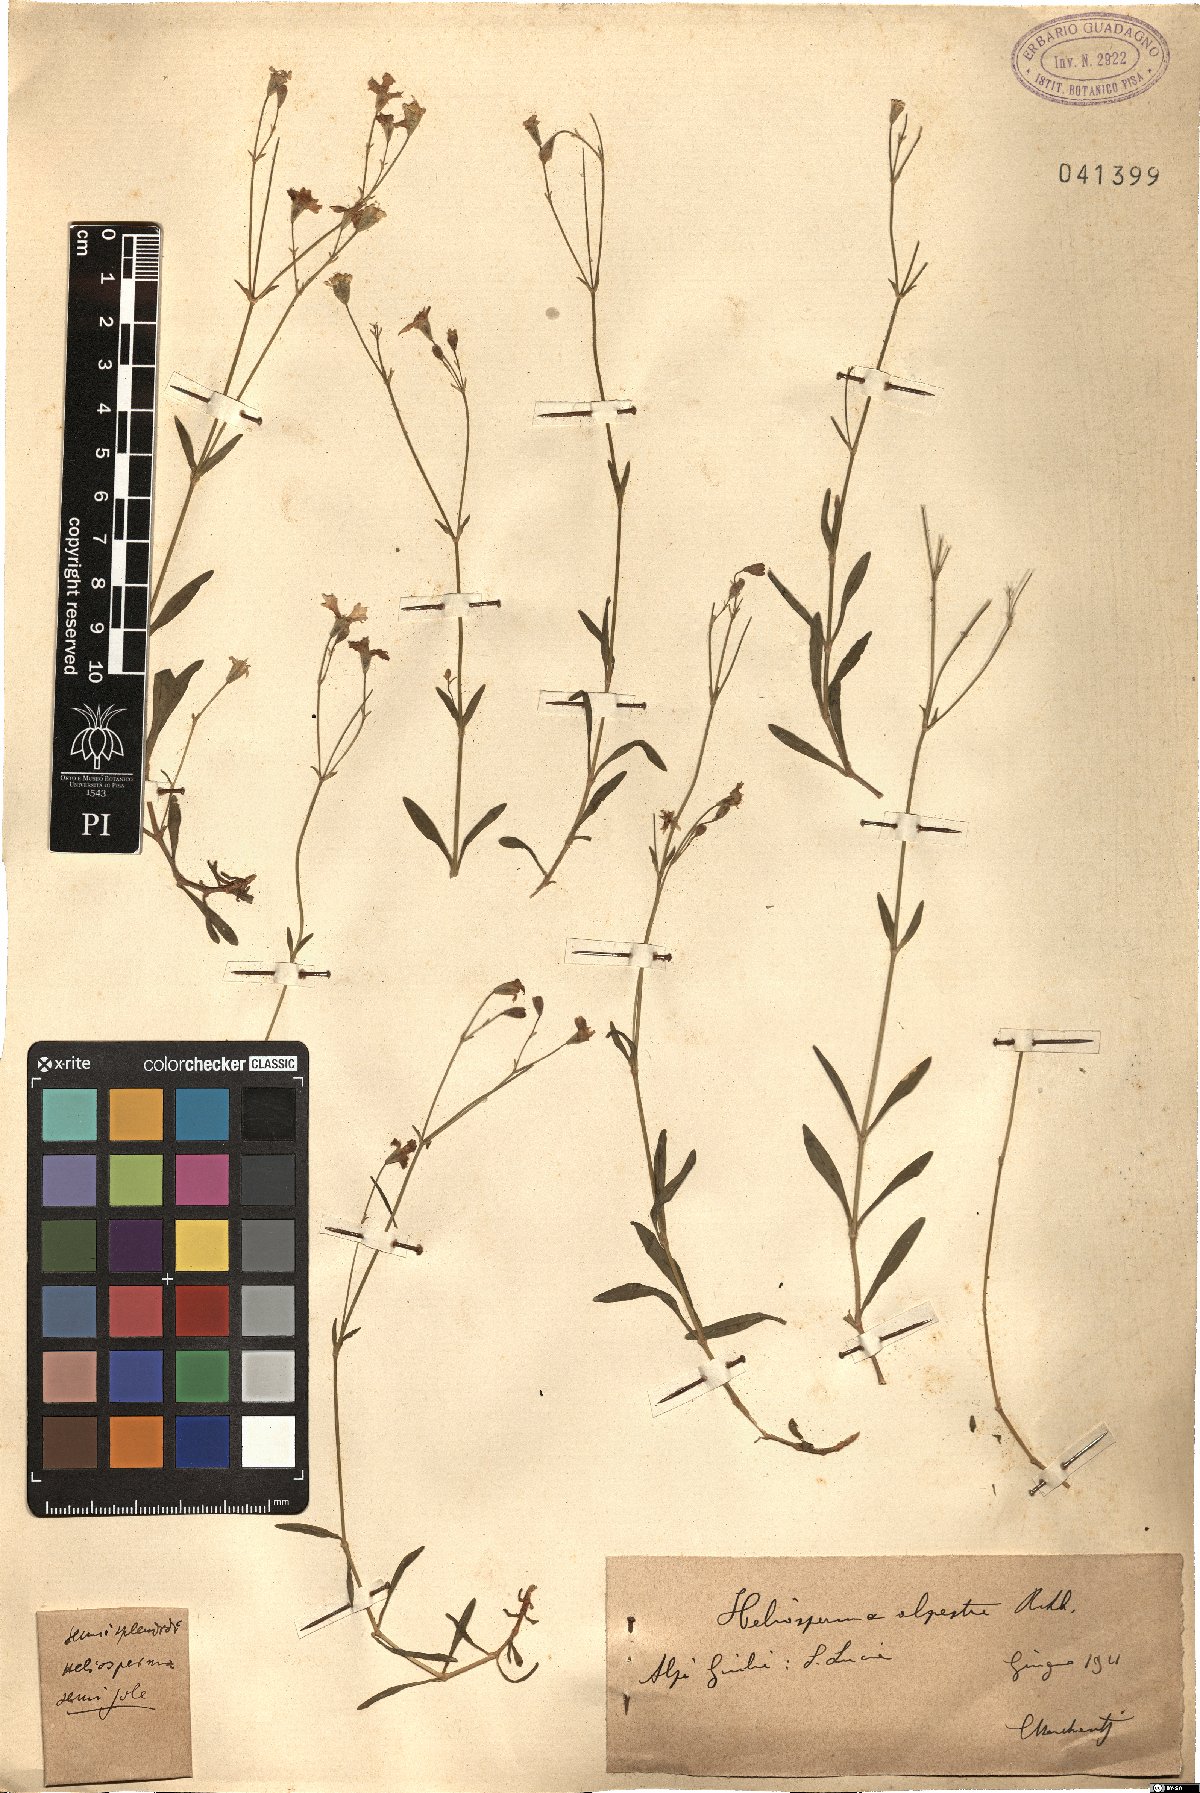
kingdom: Plantae
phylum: Tracheophyta
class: Magnoliopsida
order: Caryophyllales
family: Caryophyllaceae
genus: Heliosperma
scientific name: Heliosperma alpestre
